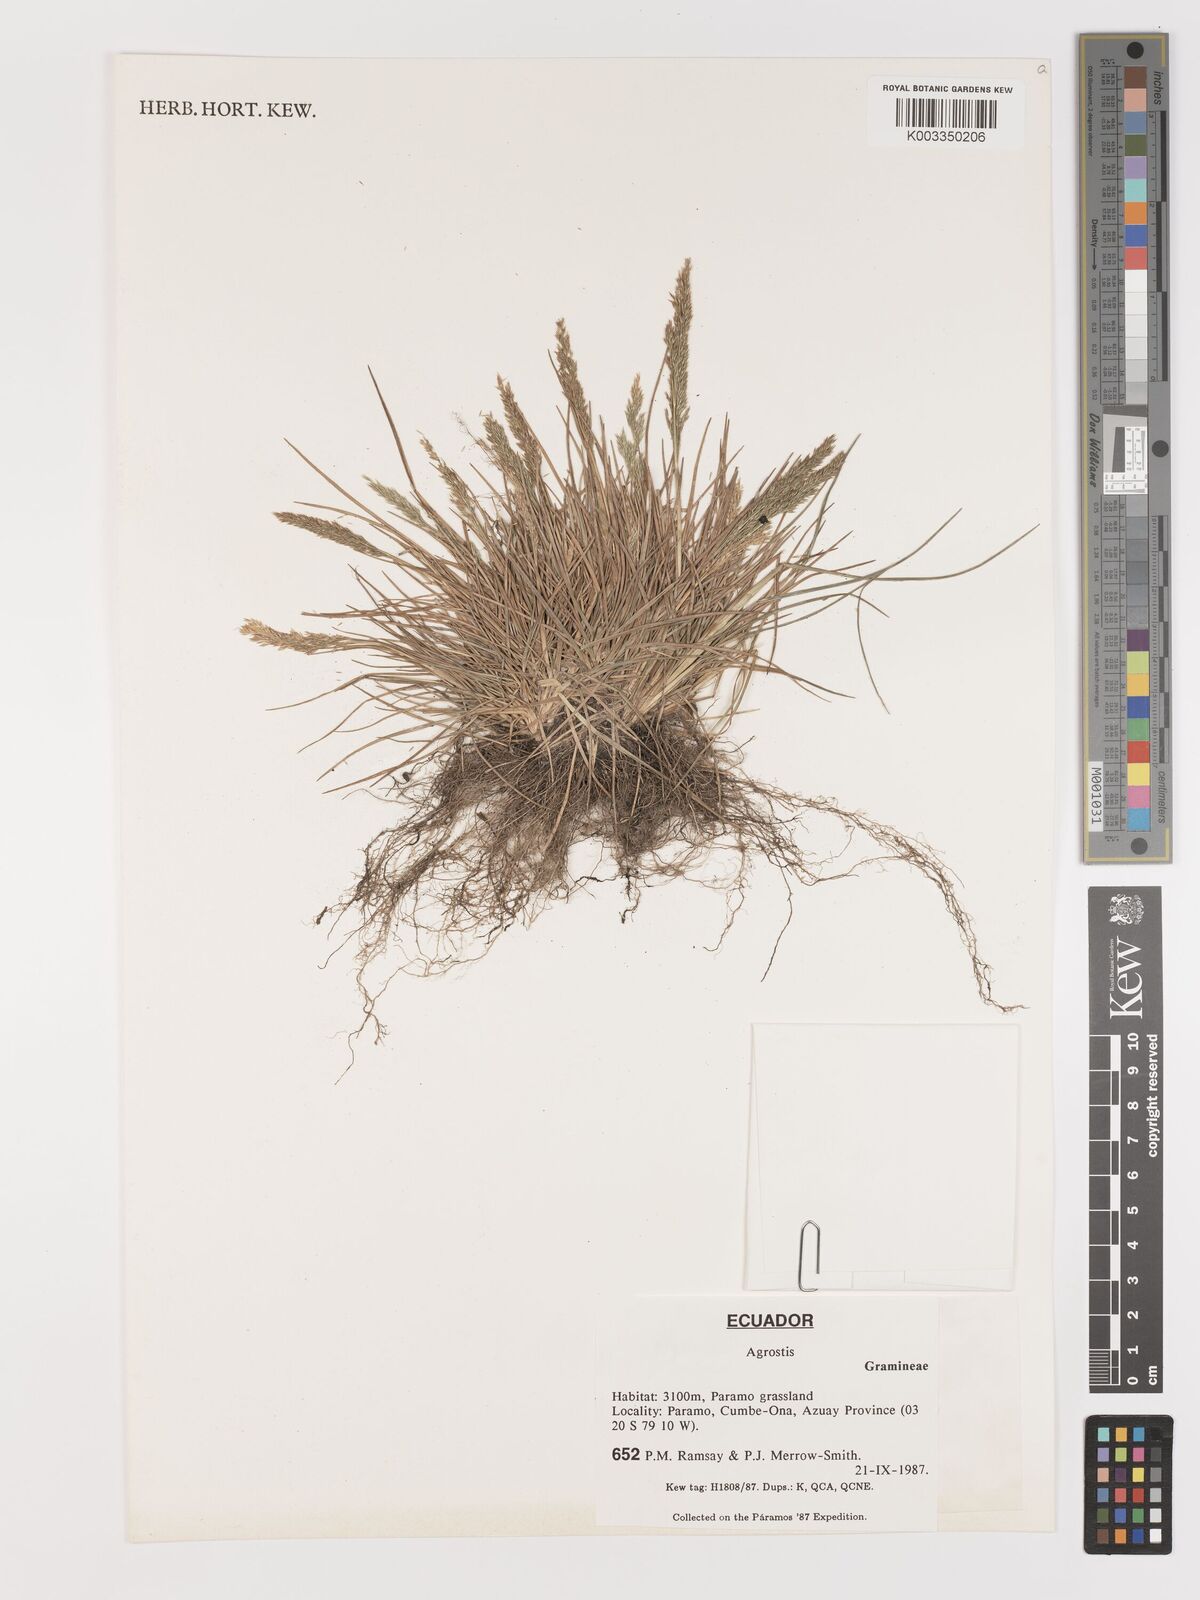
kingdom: Plantae
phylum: Tracheophyta
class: Liliopsida
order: Poales
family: Poaceae
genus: Agrostis
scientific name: Agrostis
